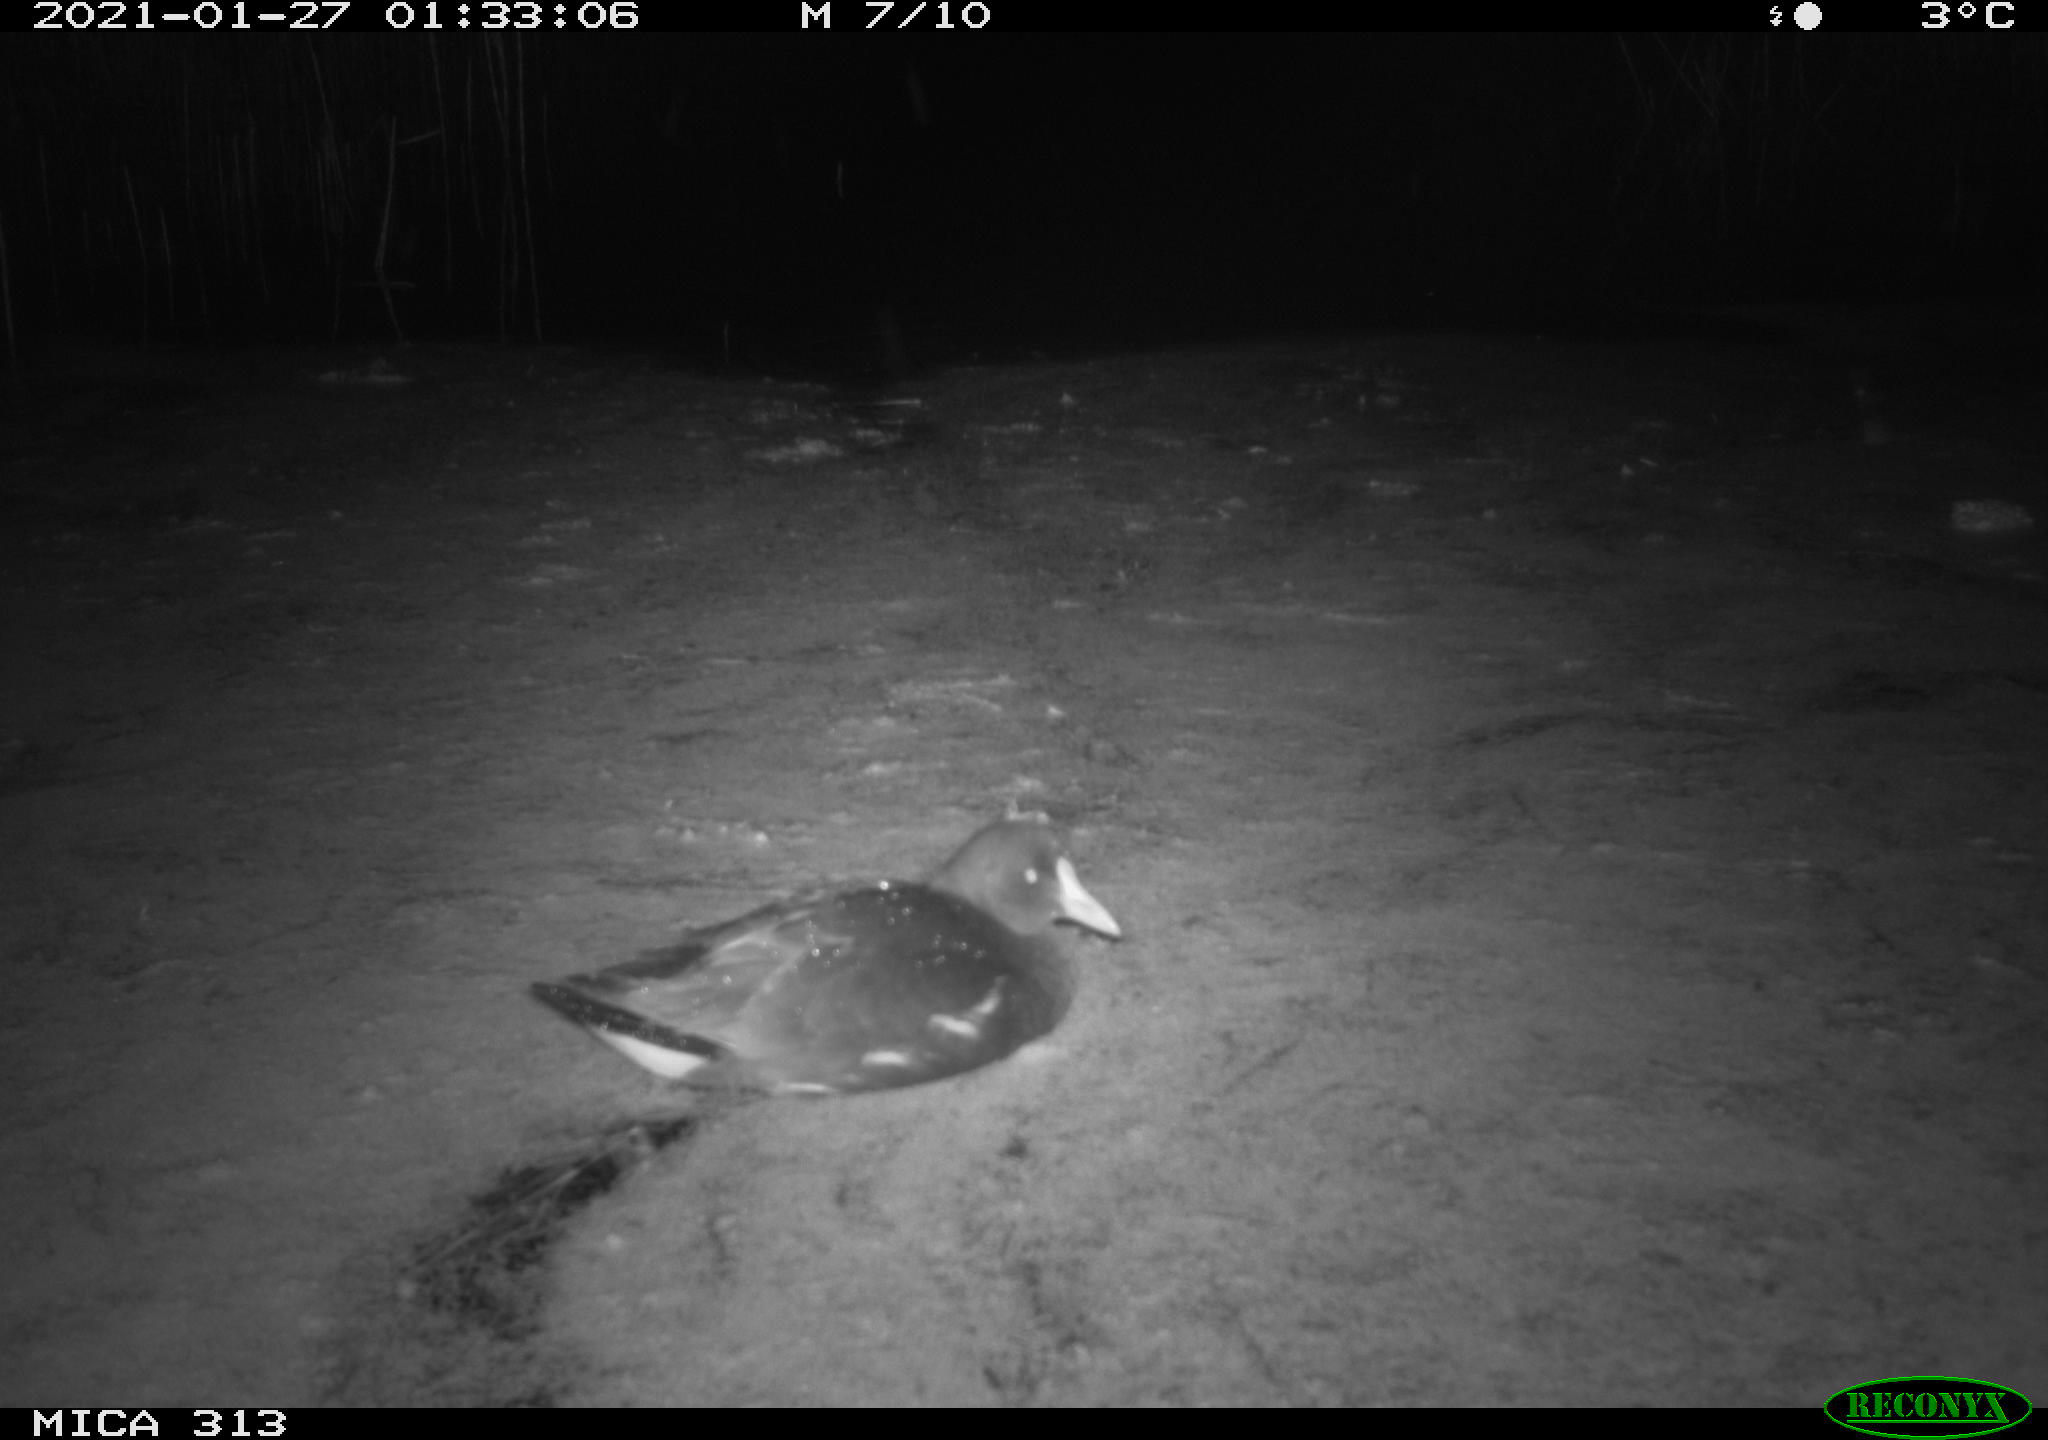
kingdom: Animalia
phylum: Chordata
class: Aves
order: Gruiformes
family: Rallidae
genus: Gallinula
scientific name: Gallinula chloropus
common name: Common moorhen
